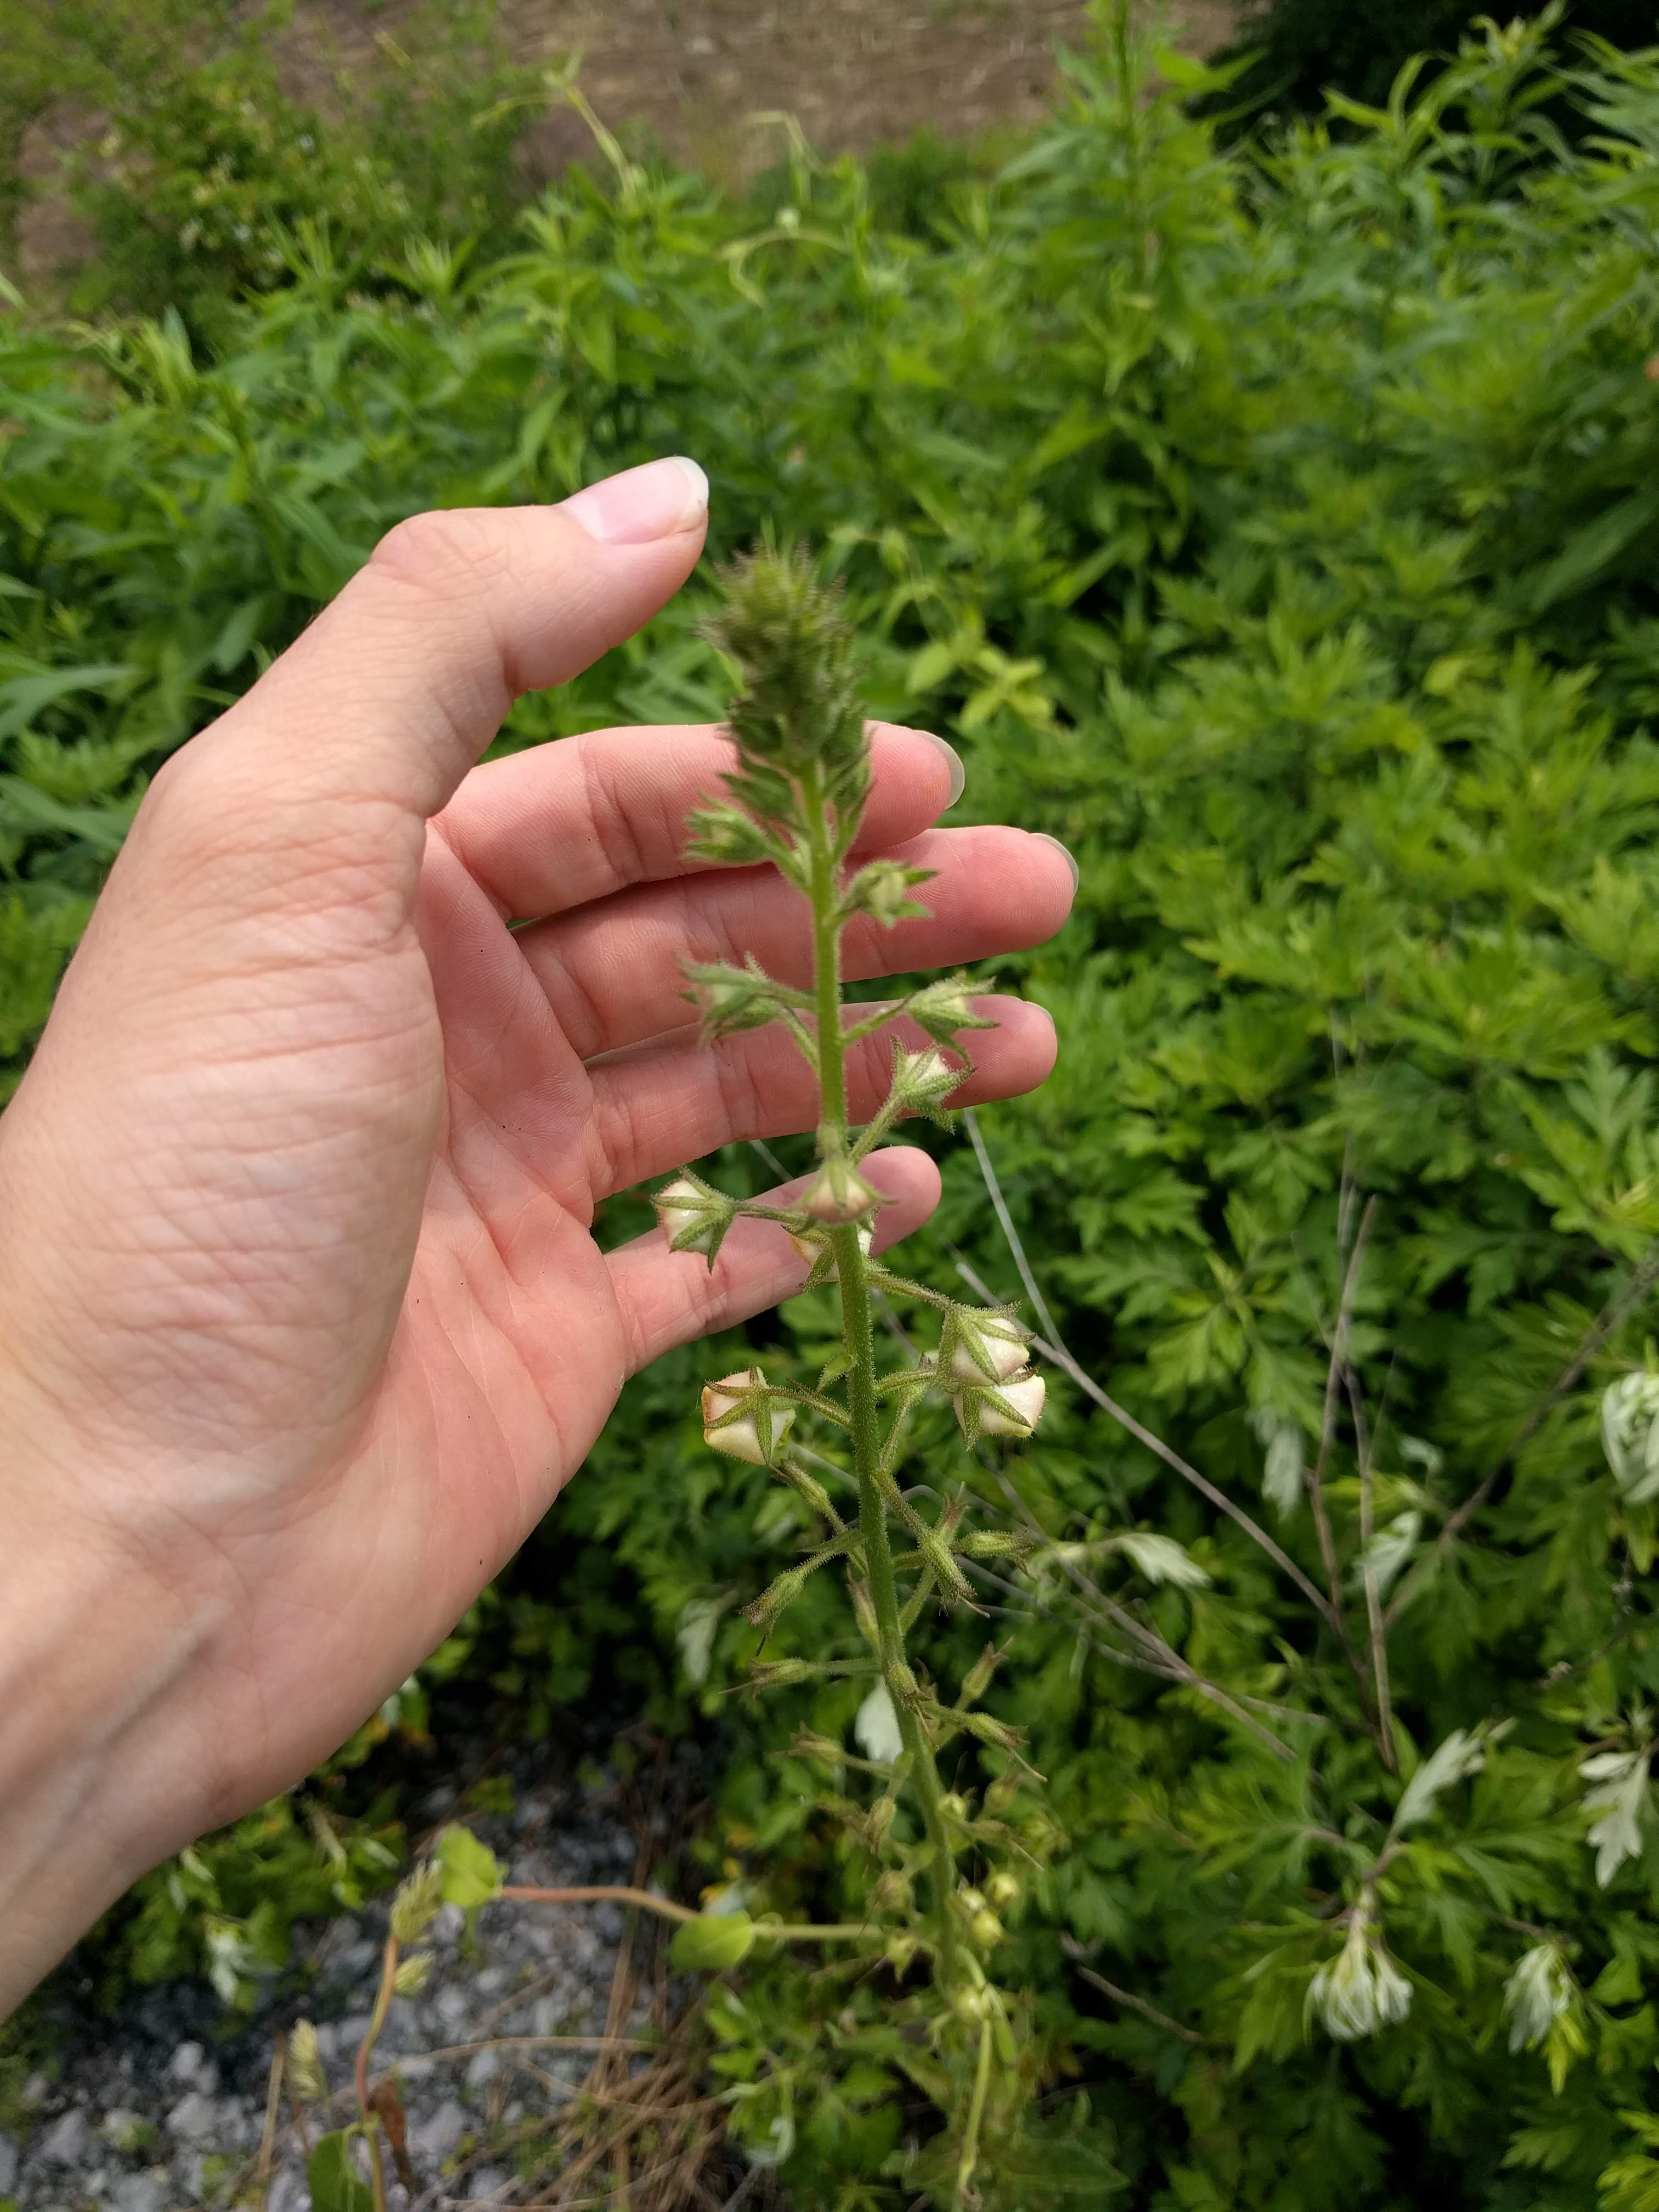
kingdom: Plantae
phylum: Tracheophyta
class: Magnoliopsida
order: Lamiales
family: Scrophulariaceae
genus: Verbascum
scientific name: Verbascum blattaria
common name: Moth mullein
